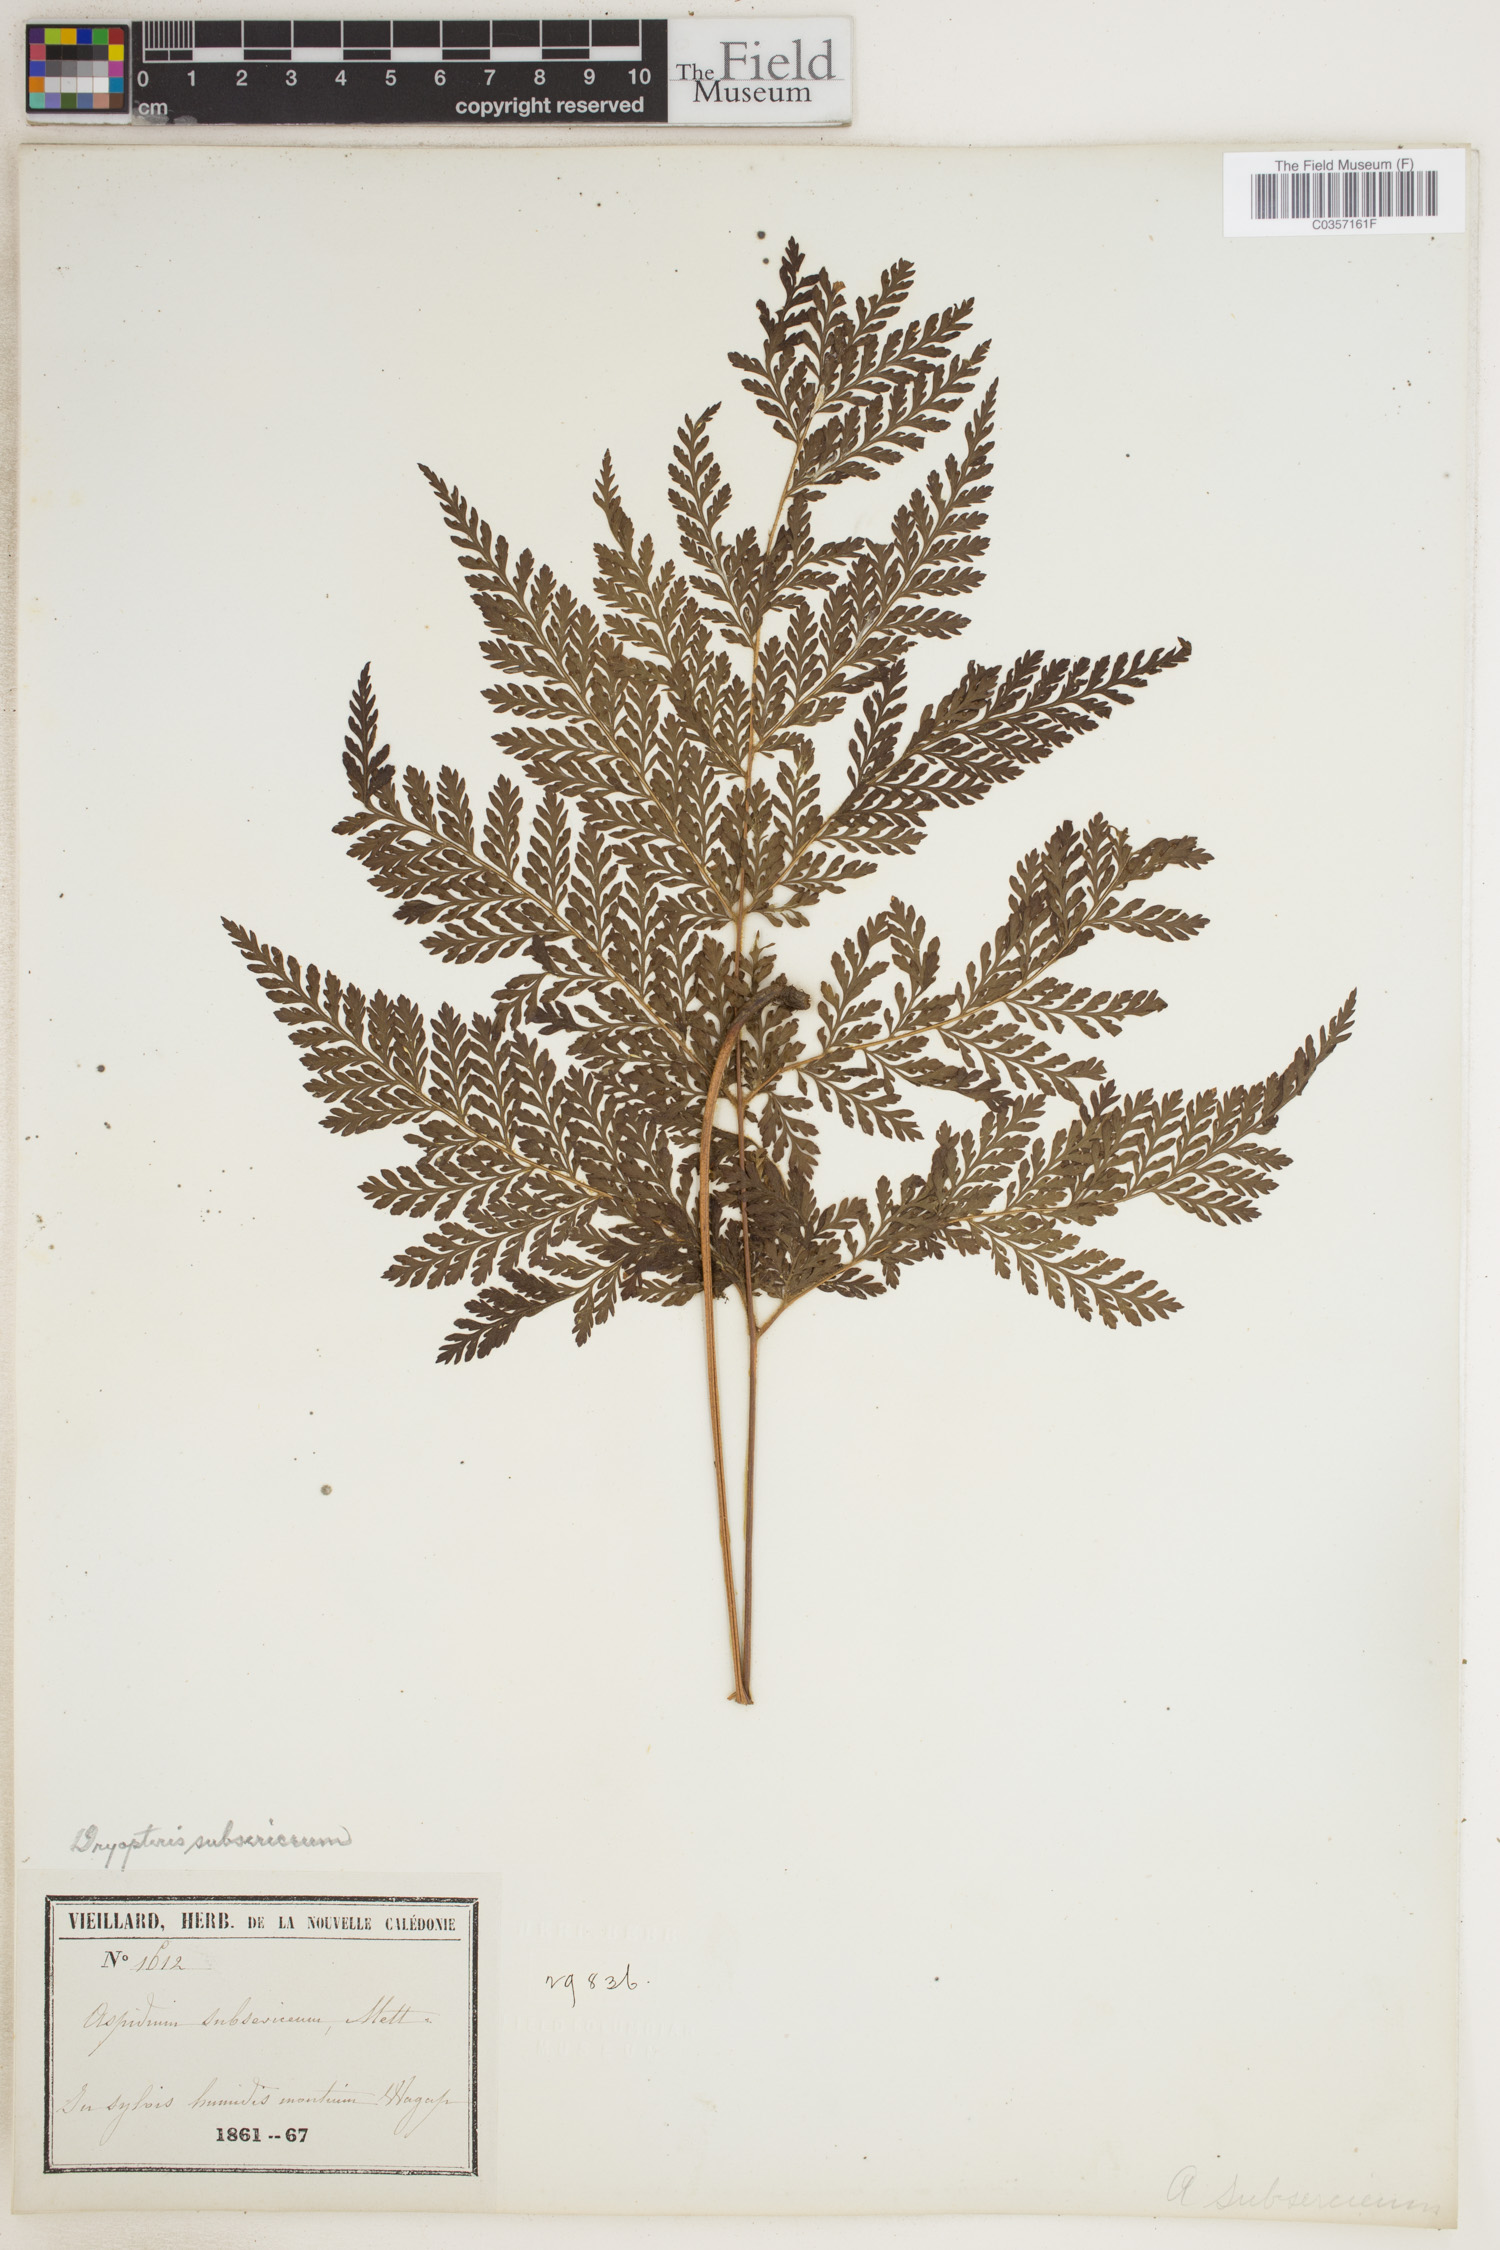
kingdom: Plantae
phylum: Tracheophyta
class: Polypodiopsida
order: Polypodiales
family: Dryopteridaceae
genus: Lastreopsis
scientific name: Lastreopsis subsericea
